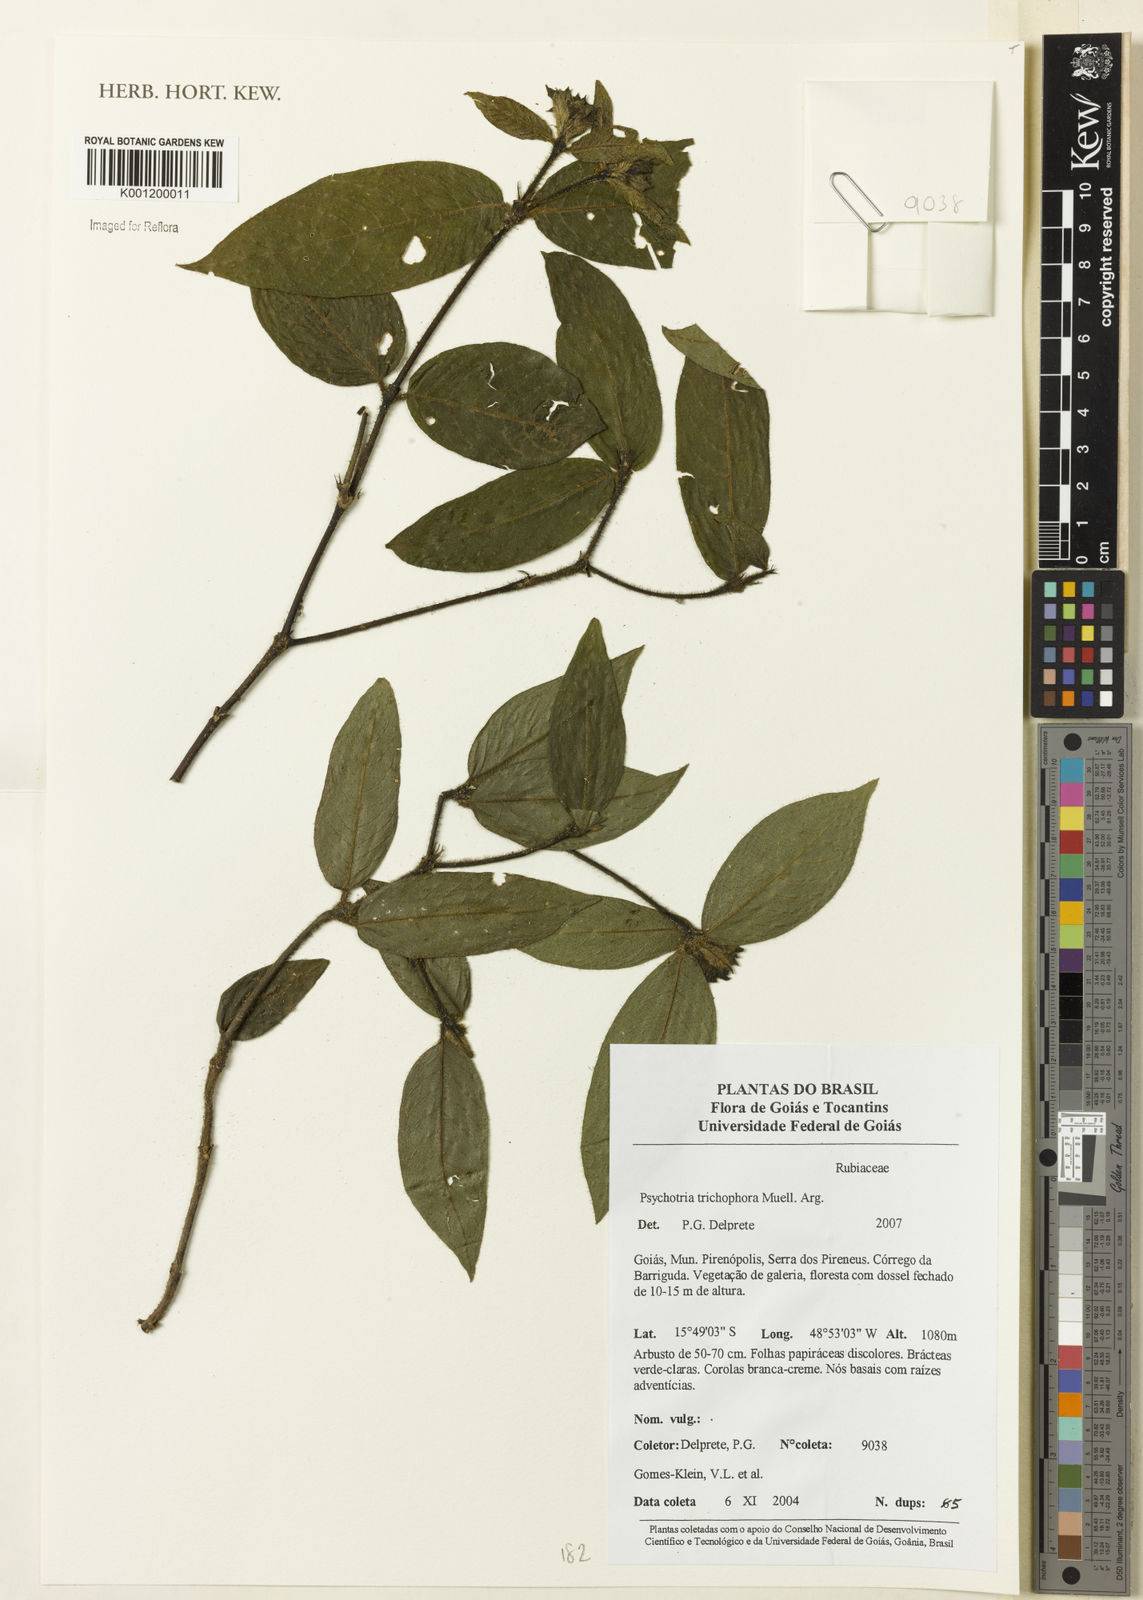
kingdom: Plantae
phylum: Tracheophyta
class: Magnoliopsida
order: Gentianales
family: Rubiaceae
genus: Psychotria
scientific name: Psychotria
